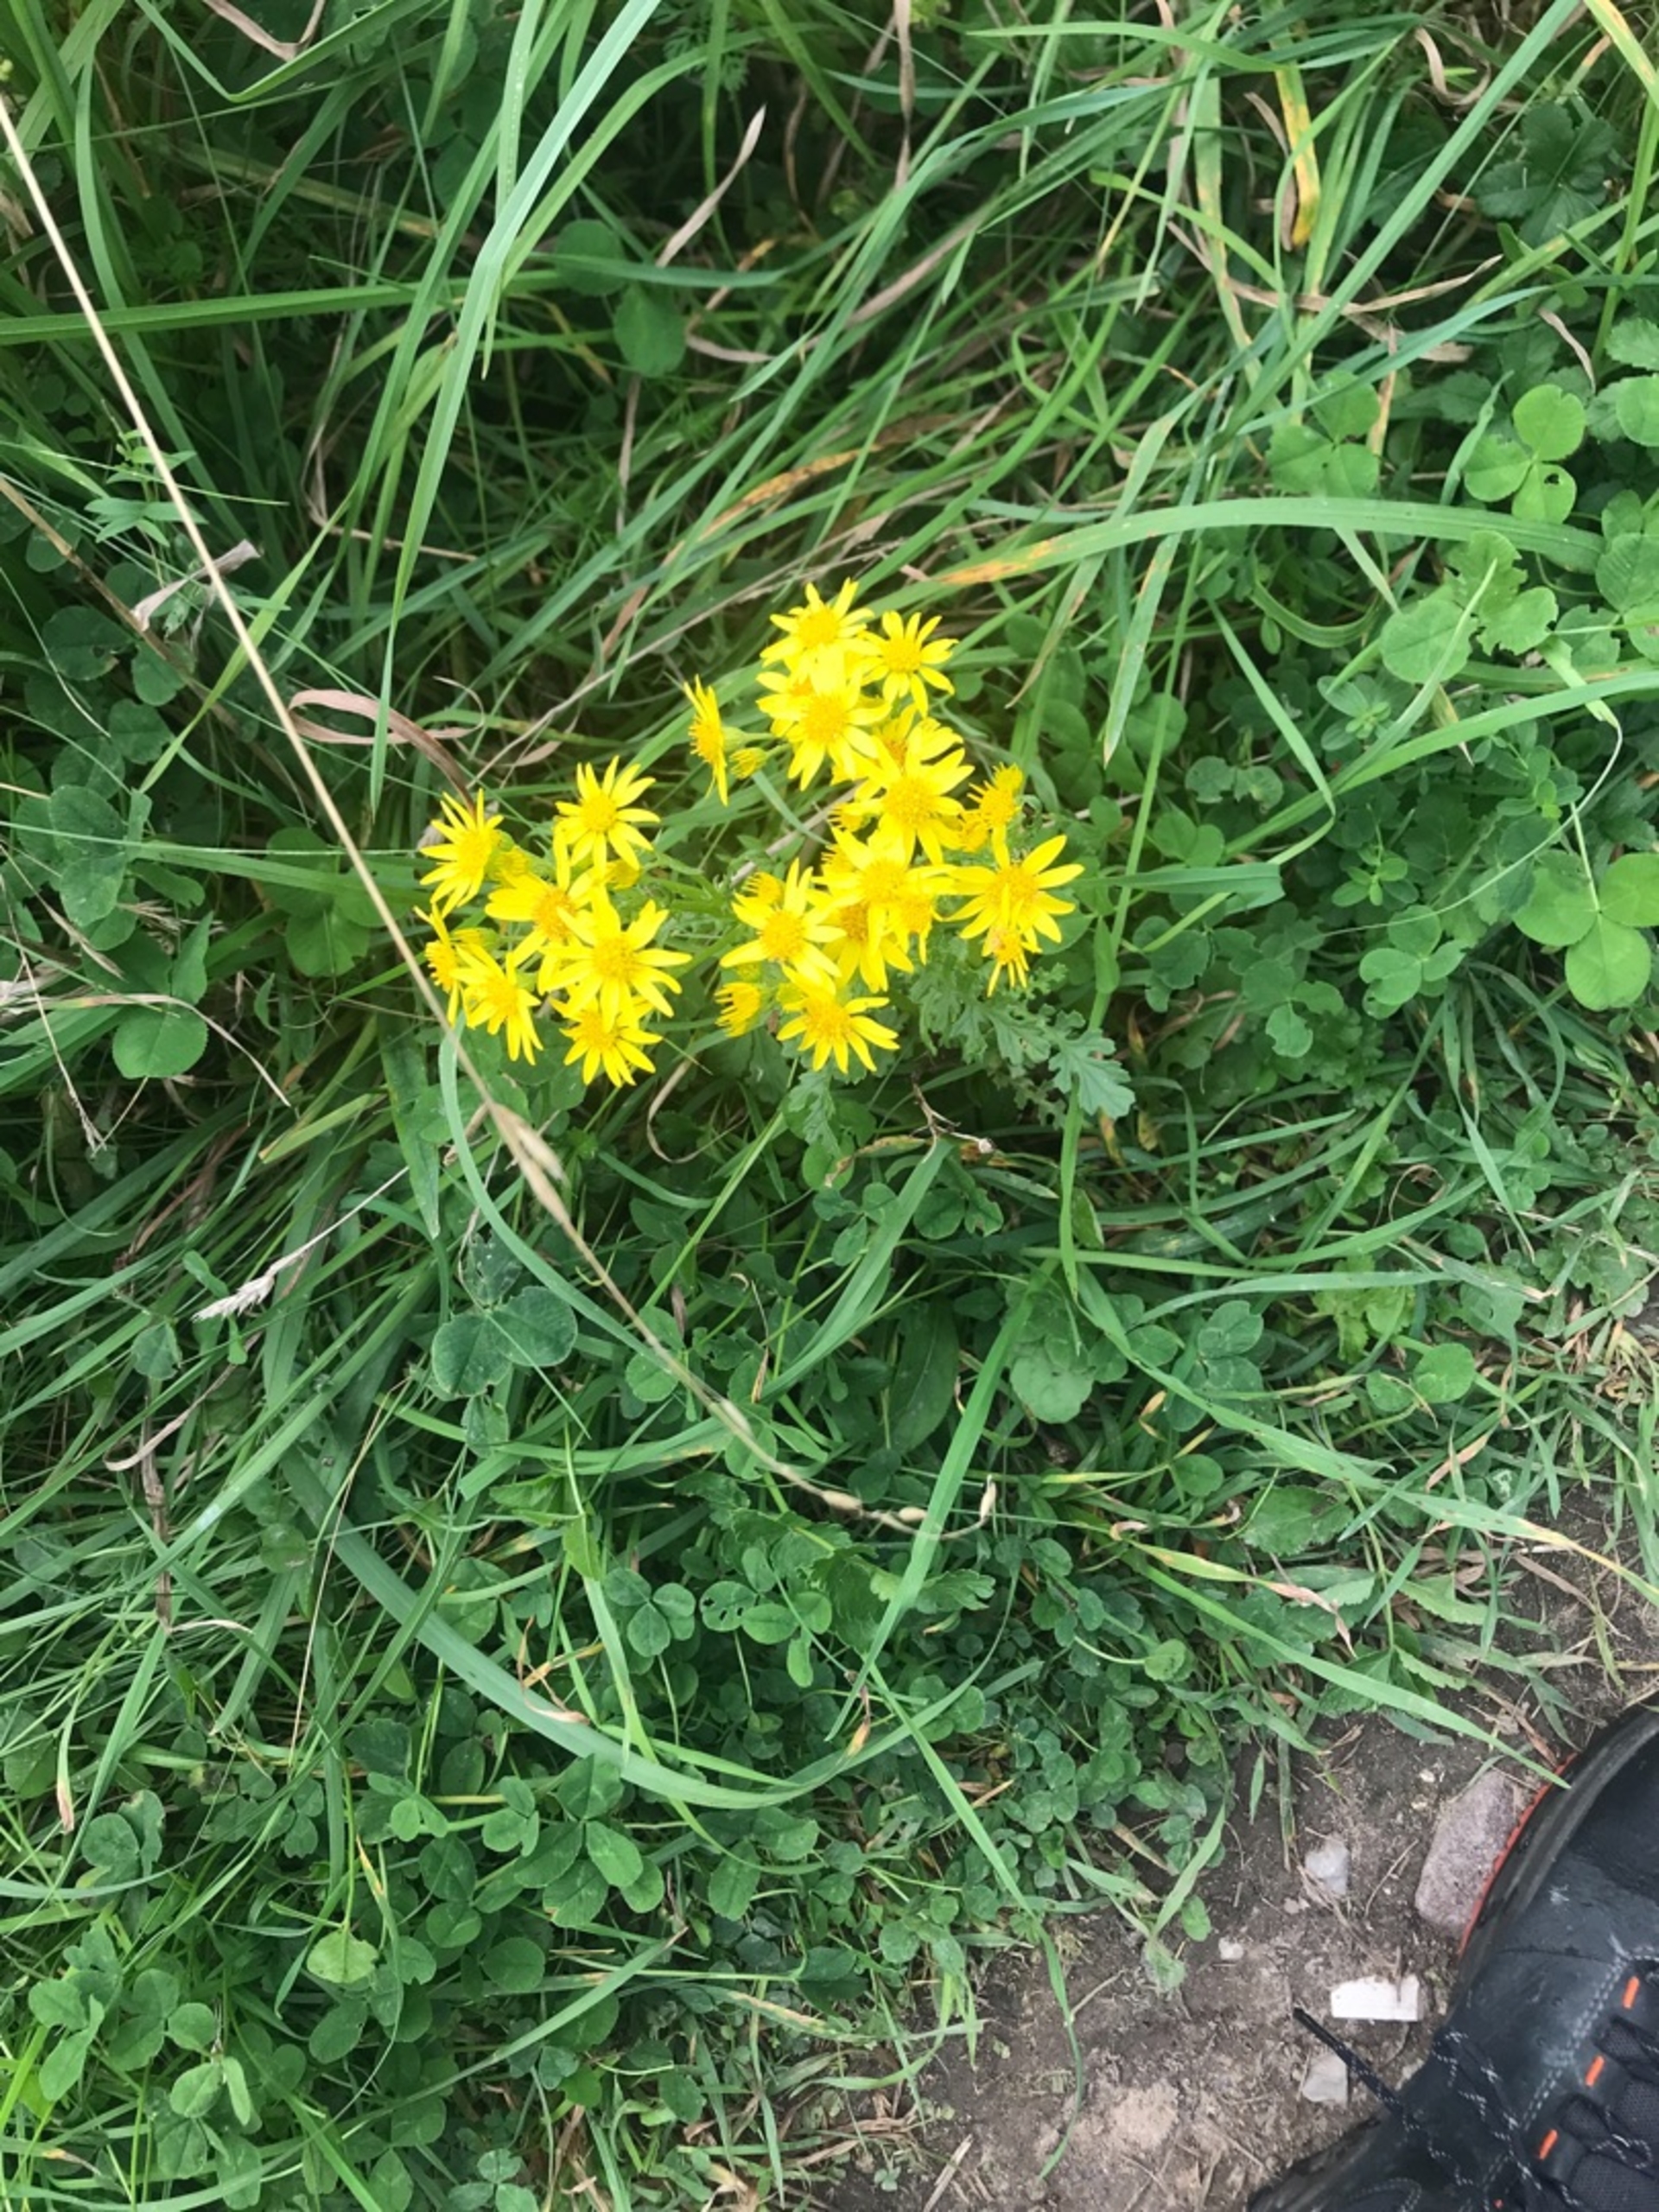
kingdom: Plantae
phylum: Tracheophyta
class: Magnoliopsida
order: Asterales
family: Asteraceae
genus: Jacobaea
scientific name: Jacobaea vulgaris
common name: Eng-brandbæger
